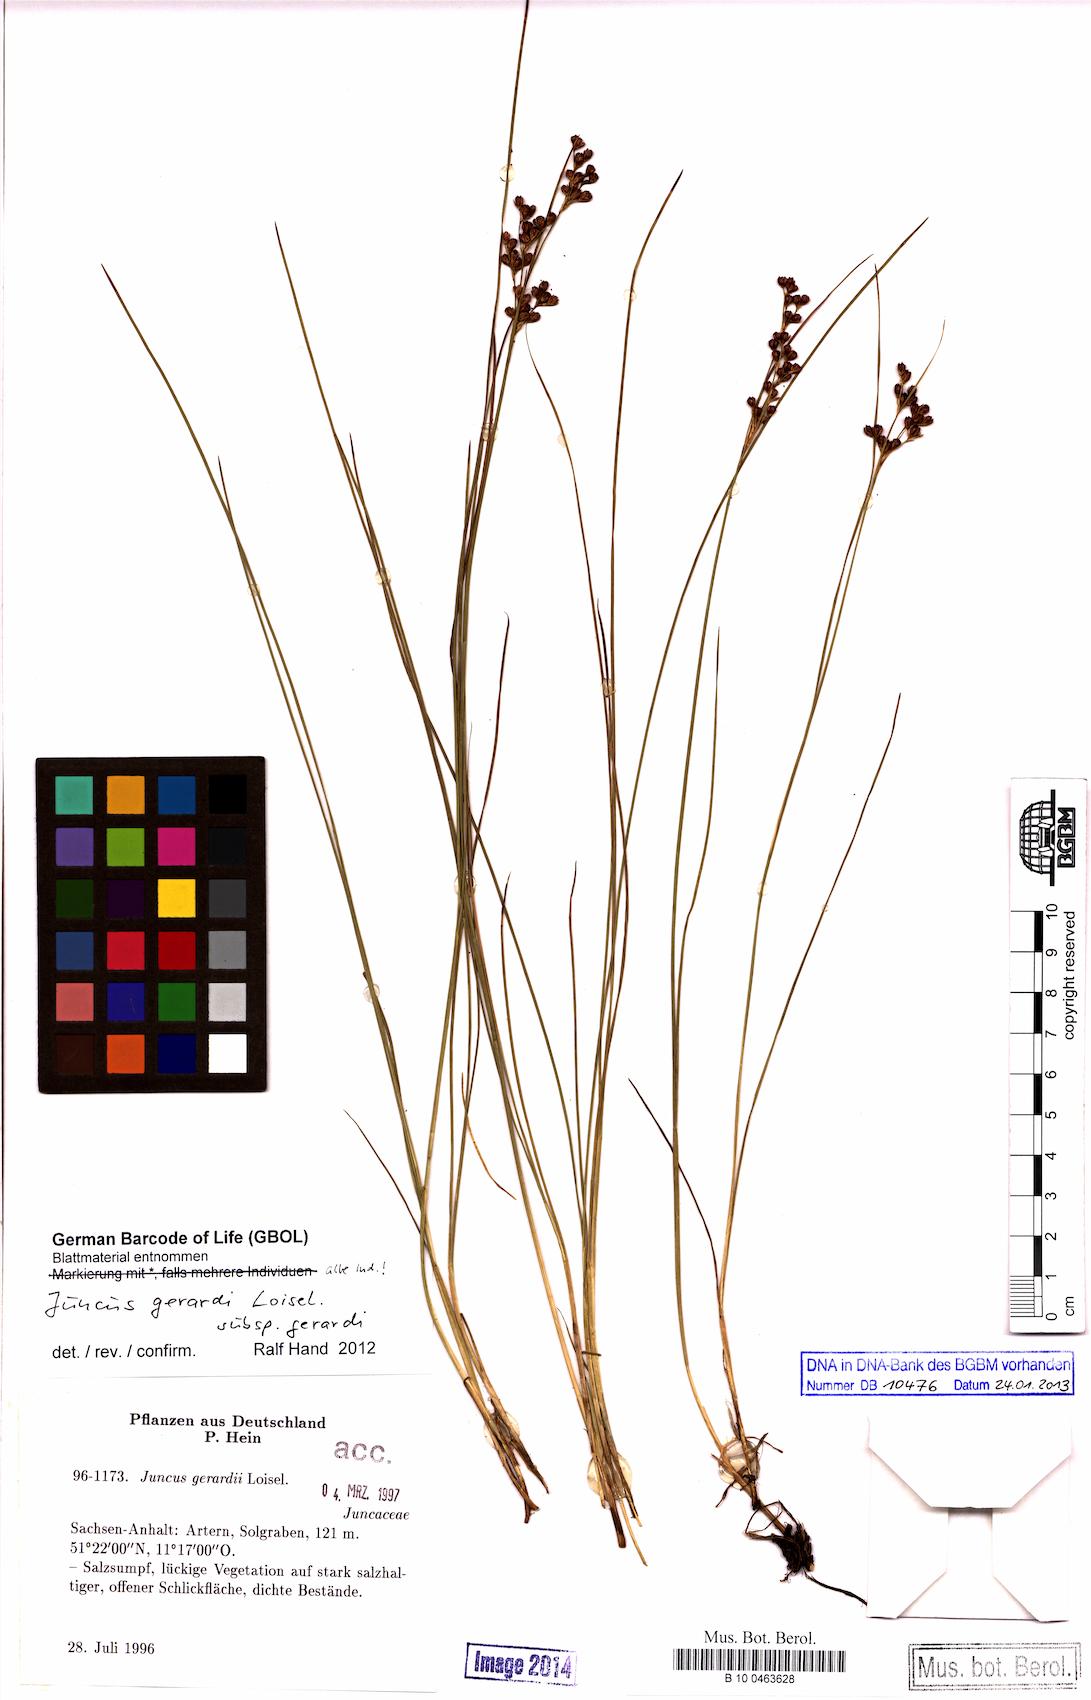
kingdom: Plantae
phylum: Tracheophyta
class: Liliopsida
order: Poales
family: Juncaceae
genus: Juncus
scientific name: Juncus gerardi
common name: Saltmarsh rush
